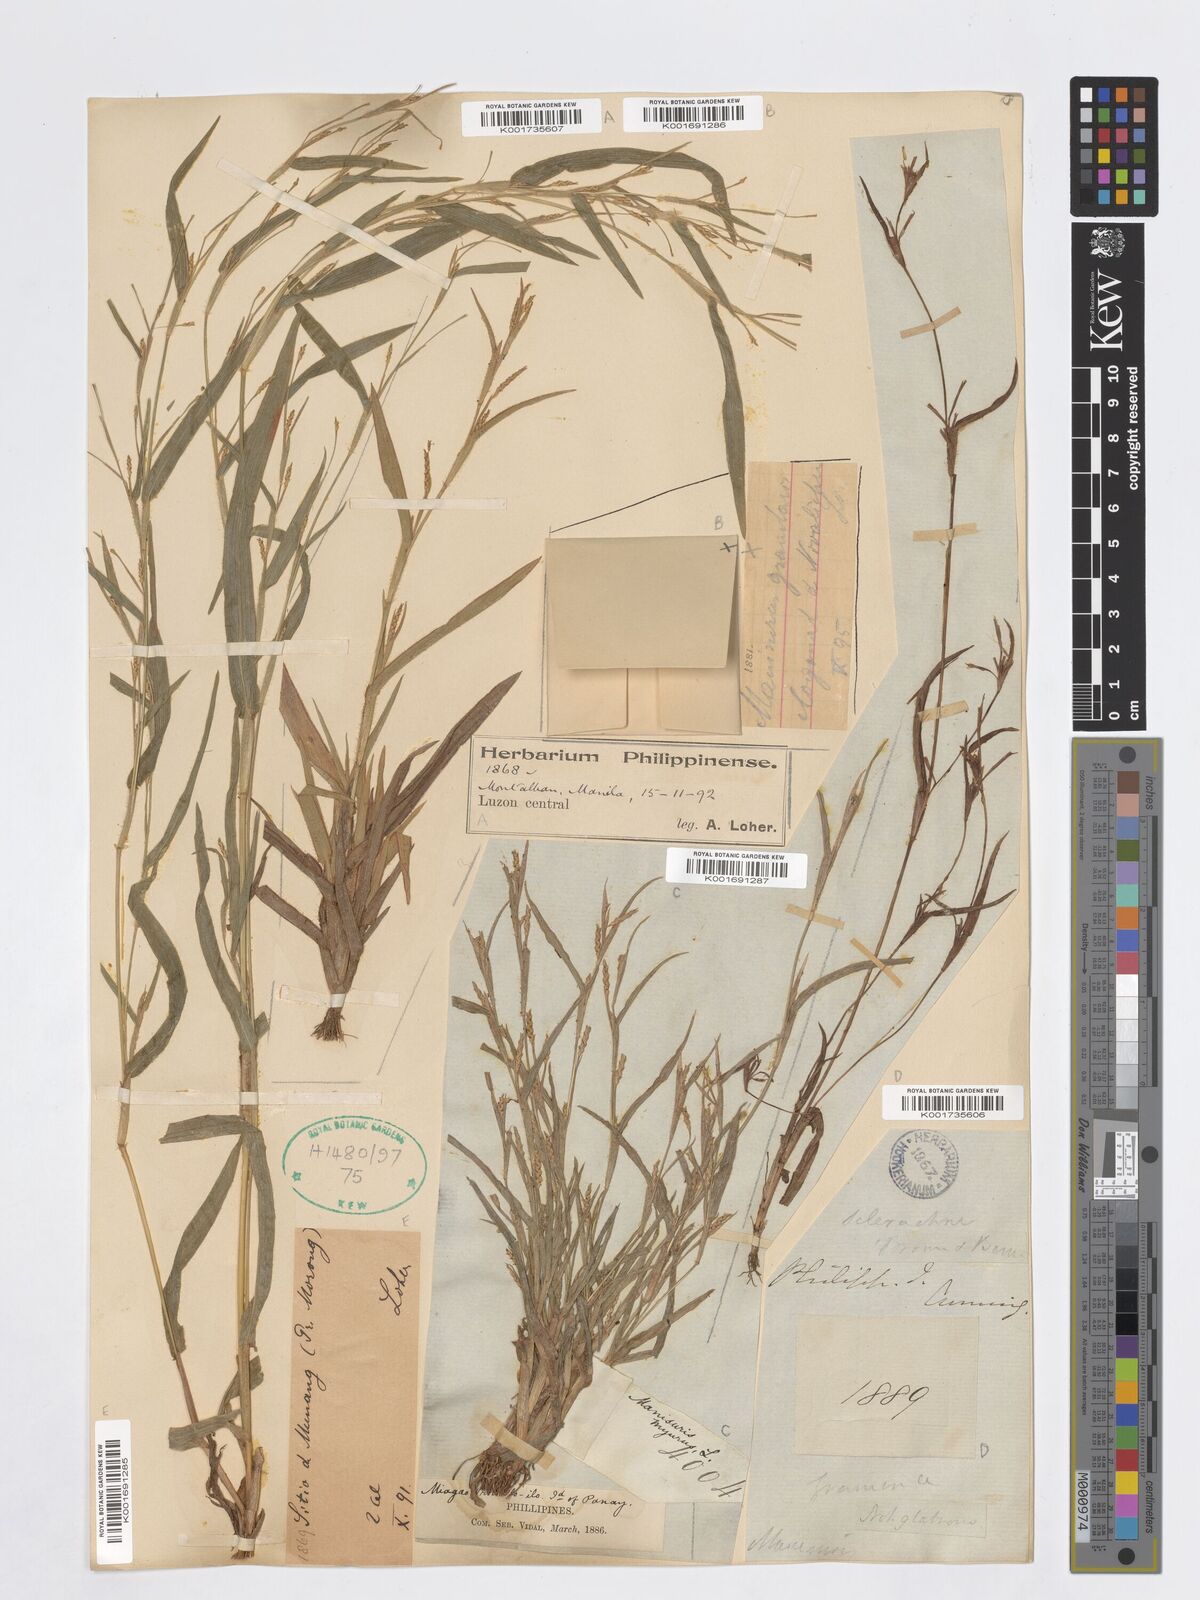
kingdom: Plantae
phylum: Tracheophyta
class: Liliopsida
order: Poales
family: Poaceae
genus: Hackelochloa
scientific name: Hackelochloa granularis
